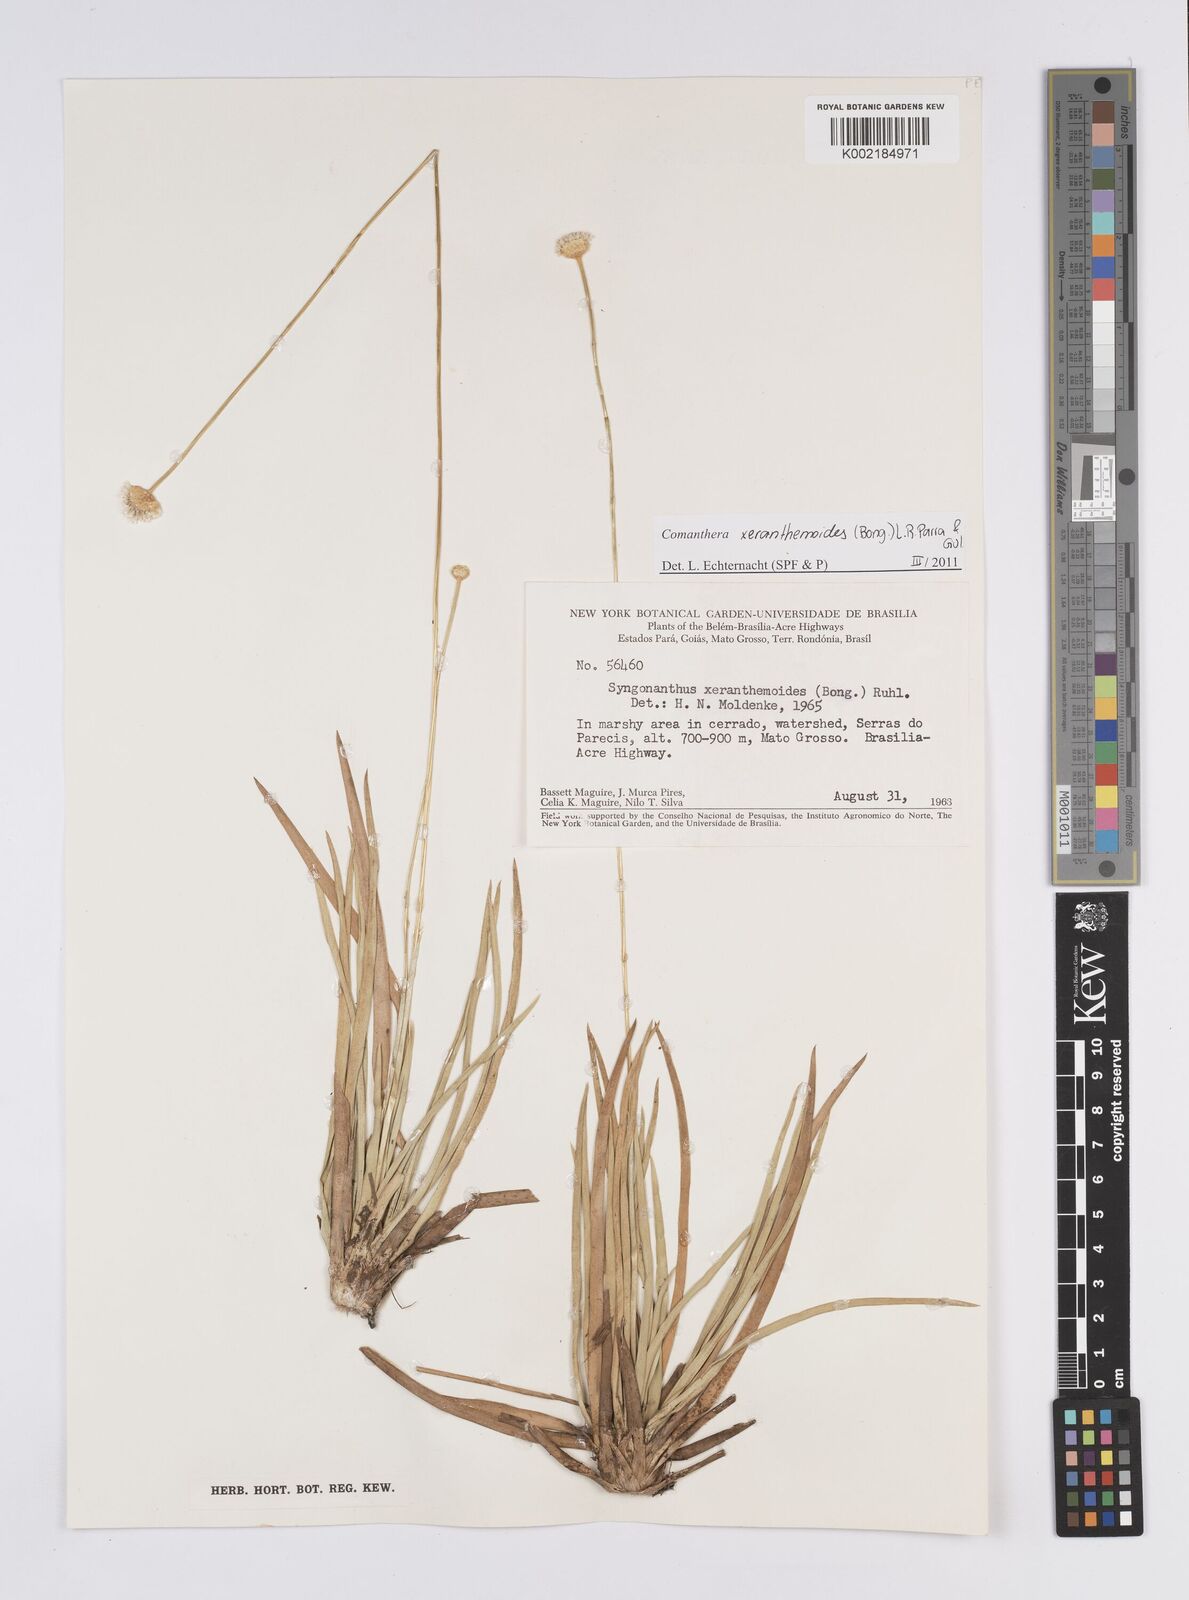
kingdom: Plantae
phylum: Tracheophyta
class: Liliopsida
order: Poales
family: Eriocaulaceae
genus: Comanthera
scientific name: Comanthera xeranthemoides
